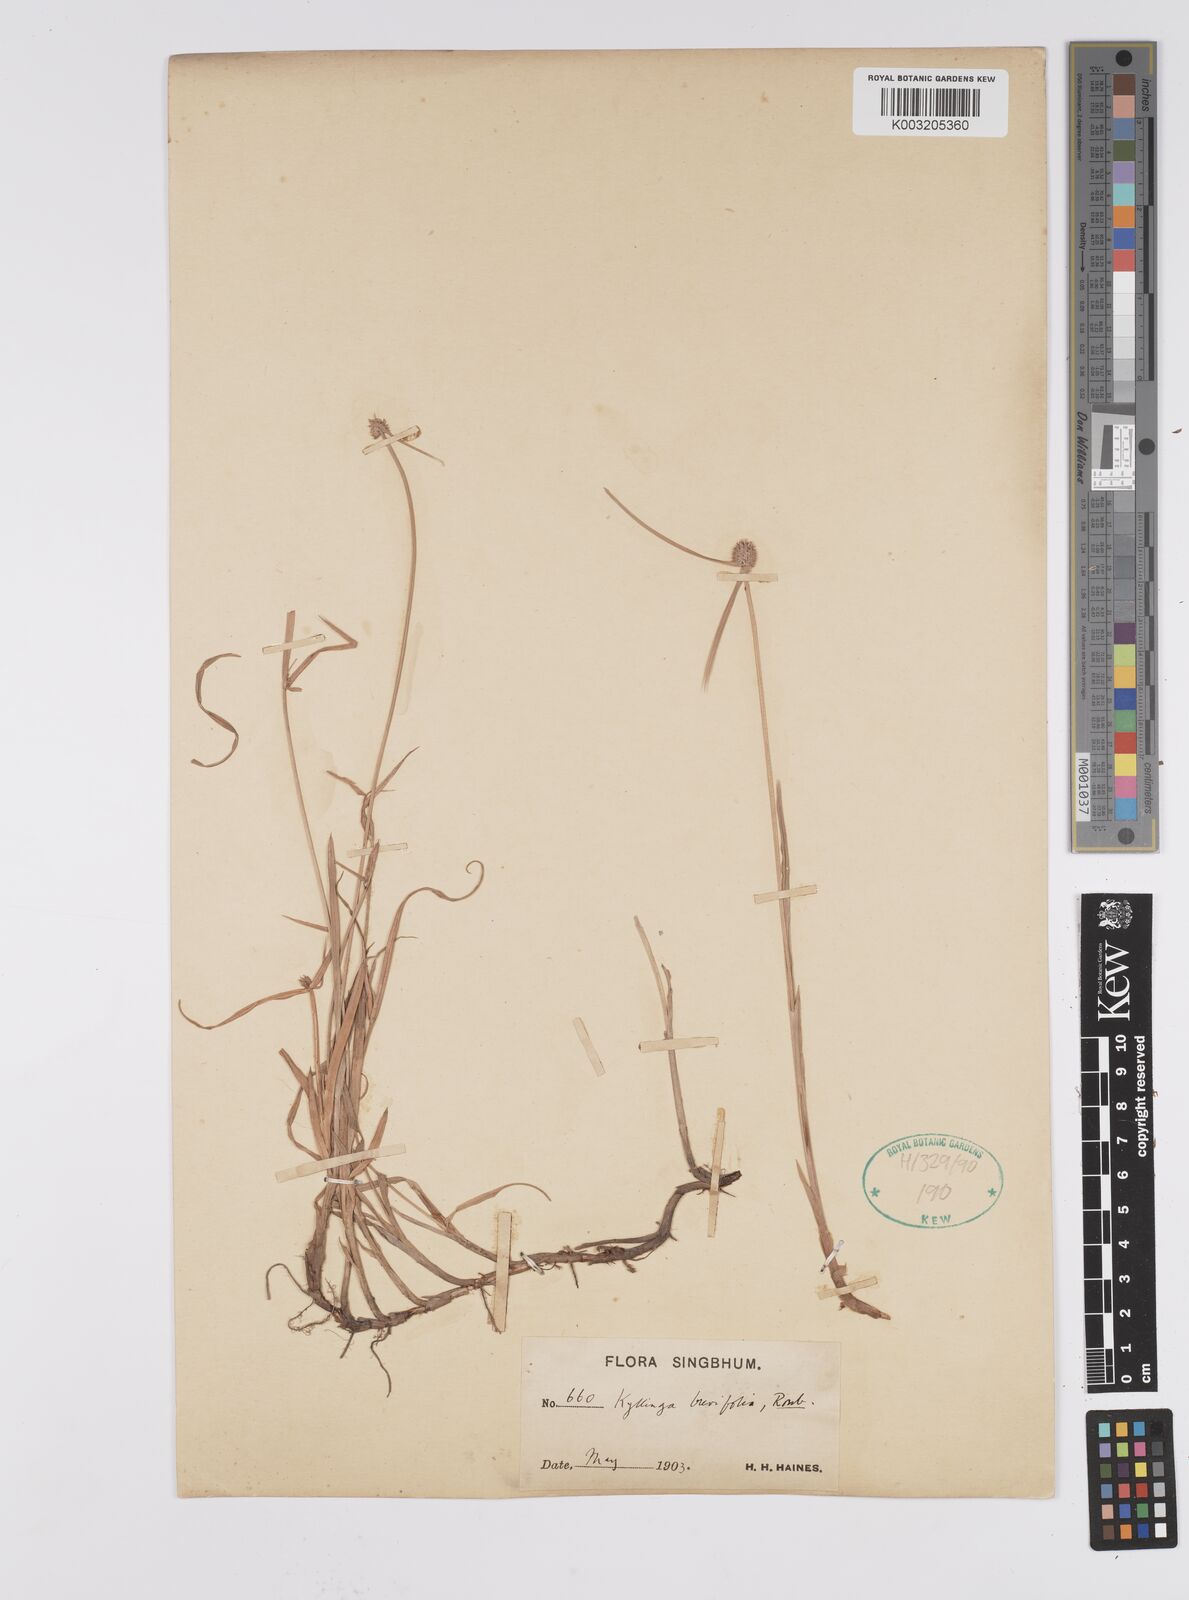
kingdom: Plantae
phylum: Tracheophyta
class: Liliopsida
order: Poales
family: Cyperaceae
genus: Cyperus
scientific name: Cyperus brevifolius
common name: Globe kyllinga
